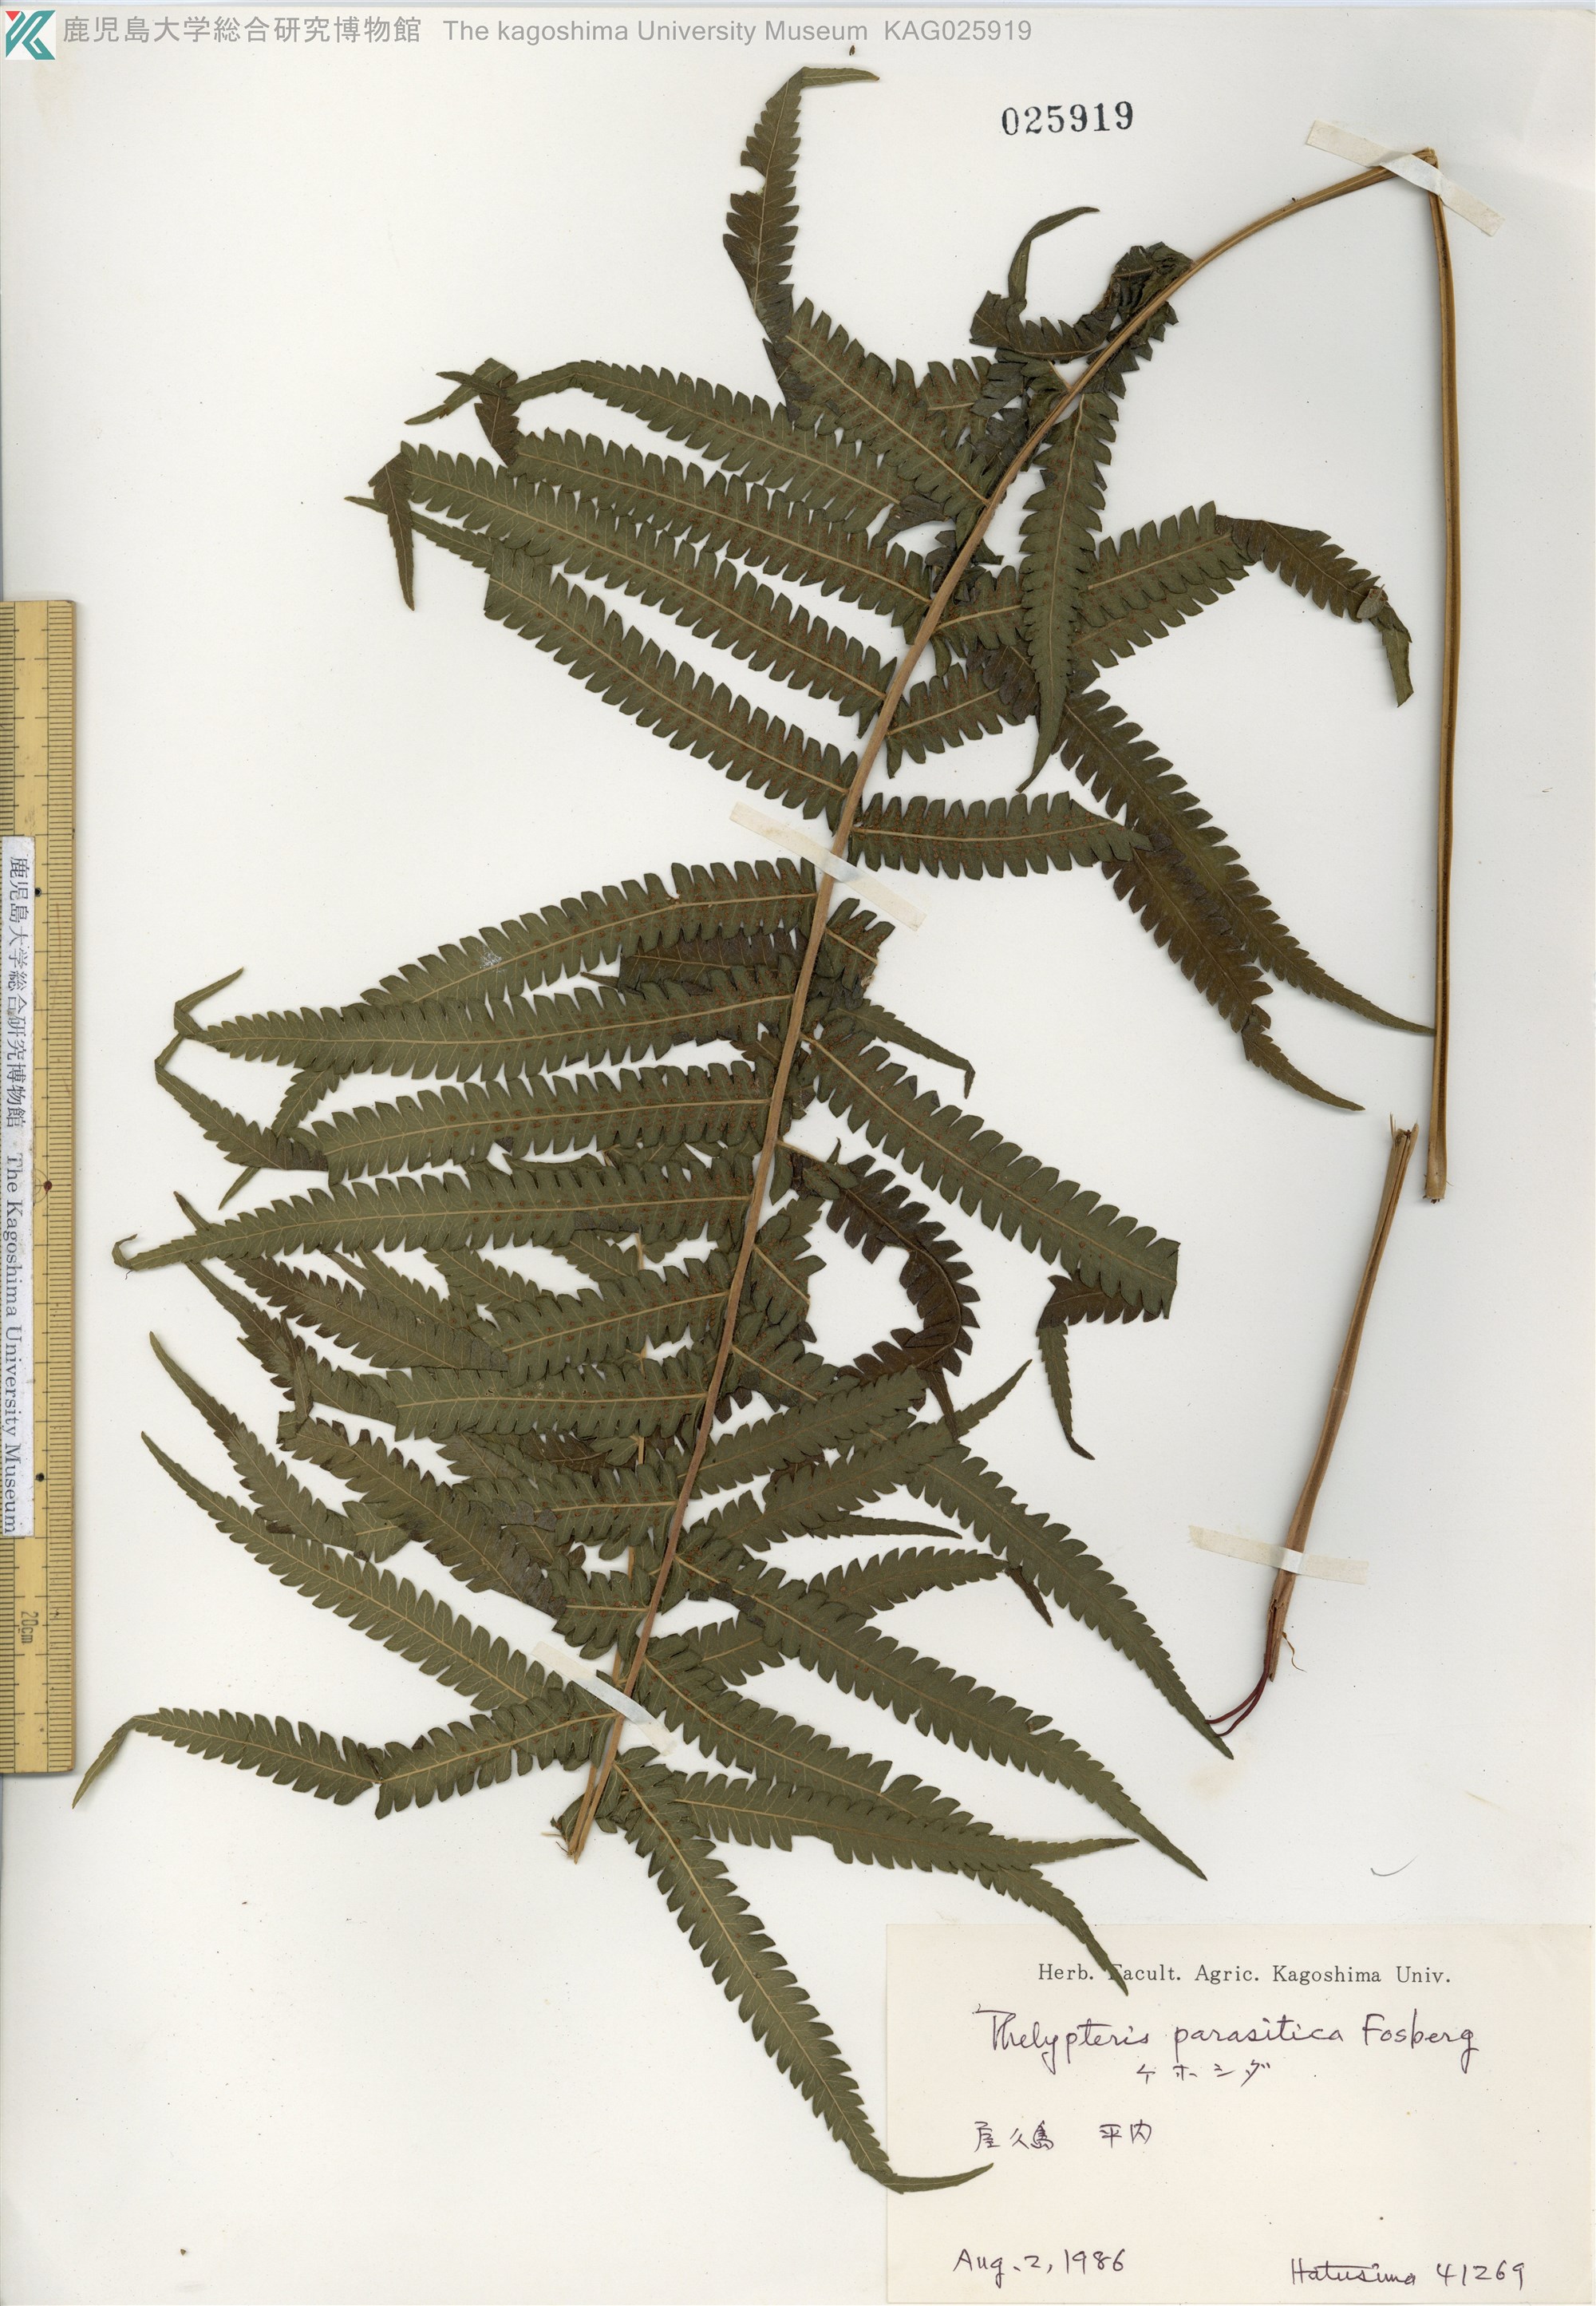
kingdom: Plantae
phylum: Tracheophyta
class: Polypodiopsida
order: Polypodiales
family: Thelypteridaceae
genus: Christella
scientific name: Christella parasitica
